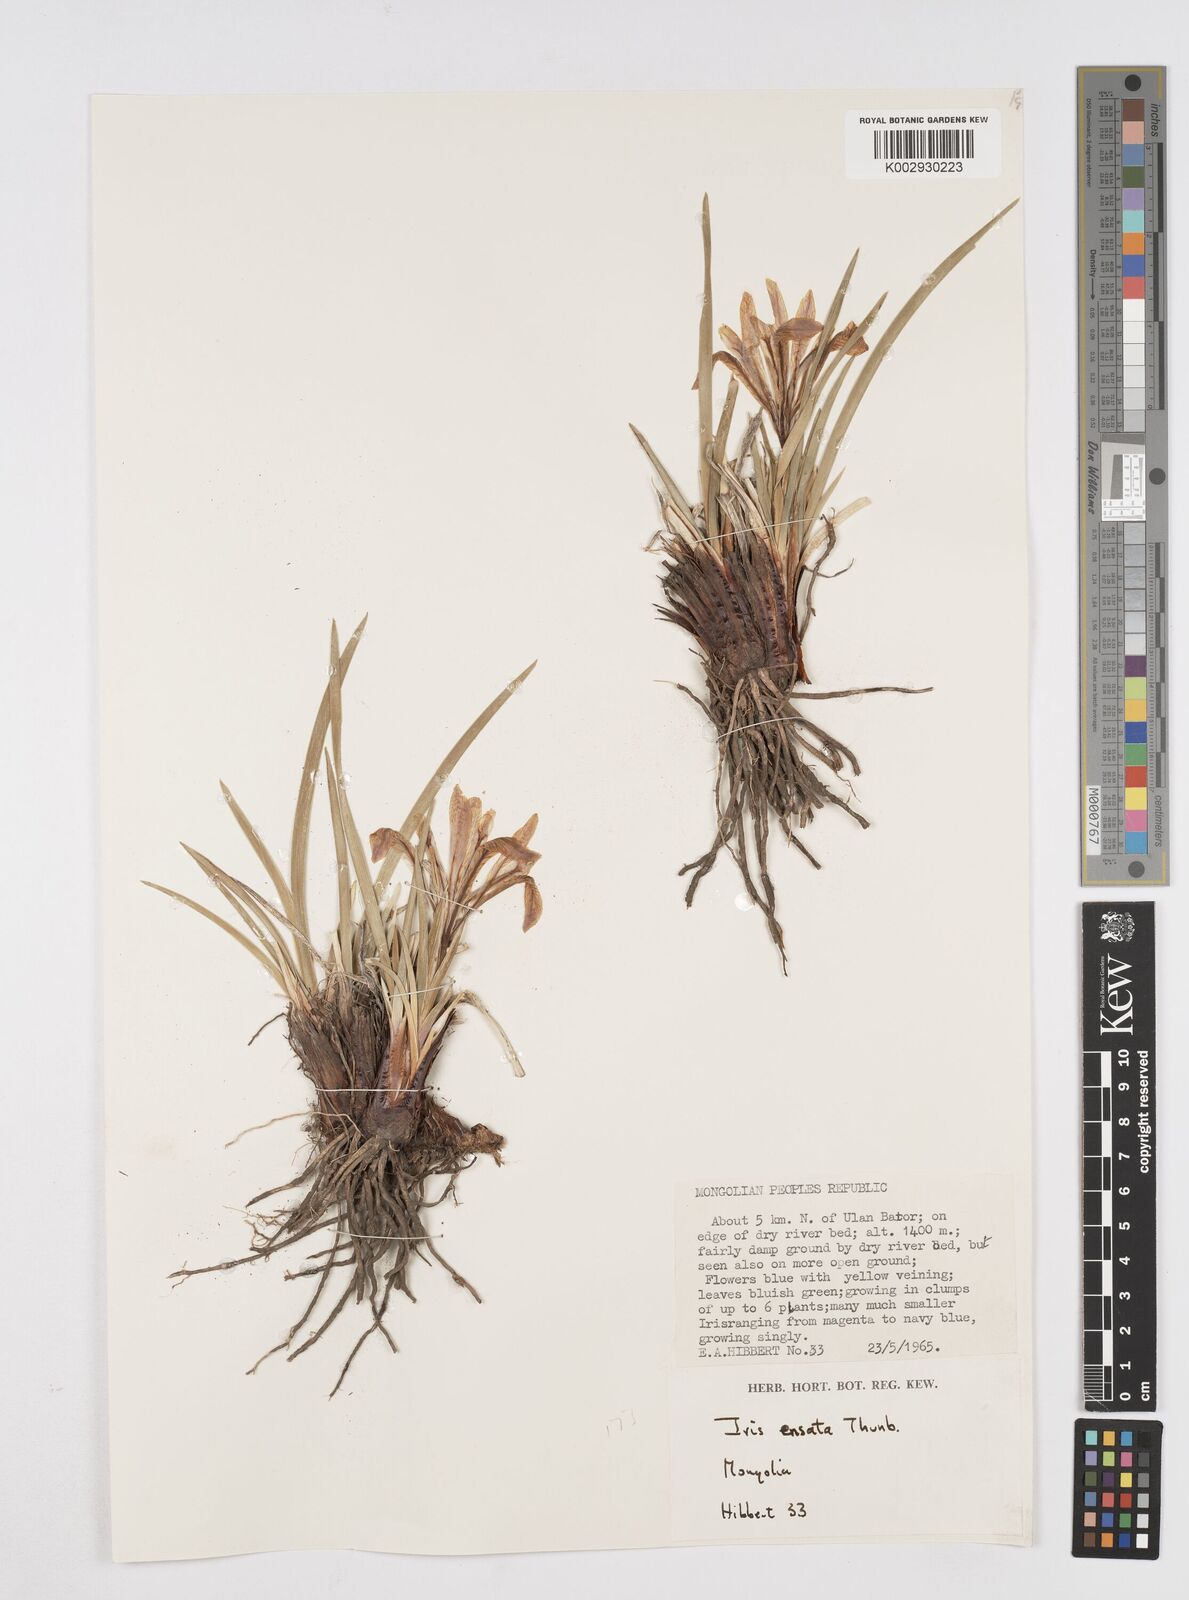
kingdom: Plantae
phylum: Tracheophyta
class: Liliopsida
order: Asparagales
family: Iridaceae
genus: Iris
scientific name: Iris lactea
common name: White-flower chinese iris
